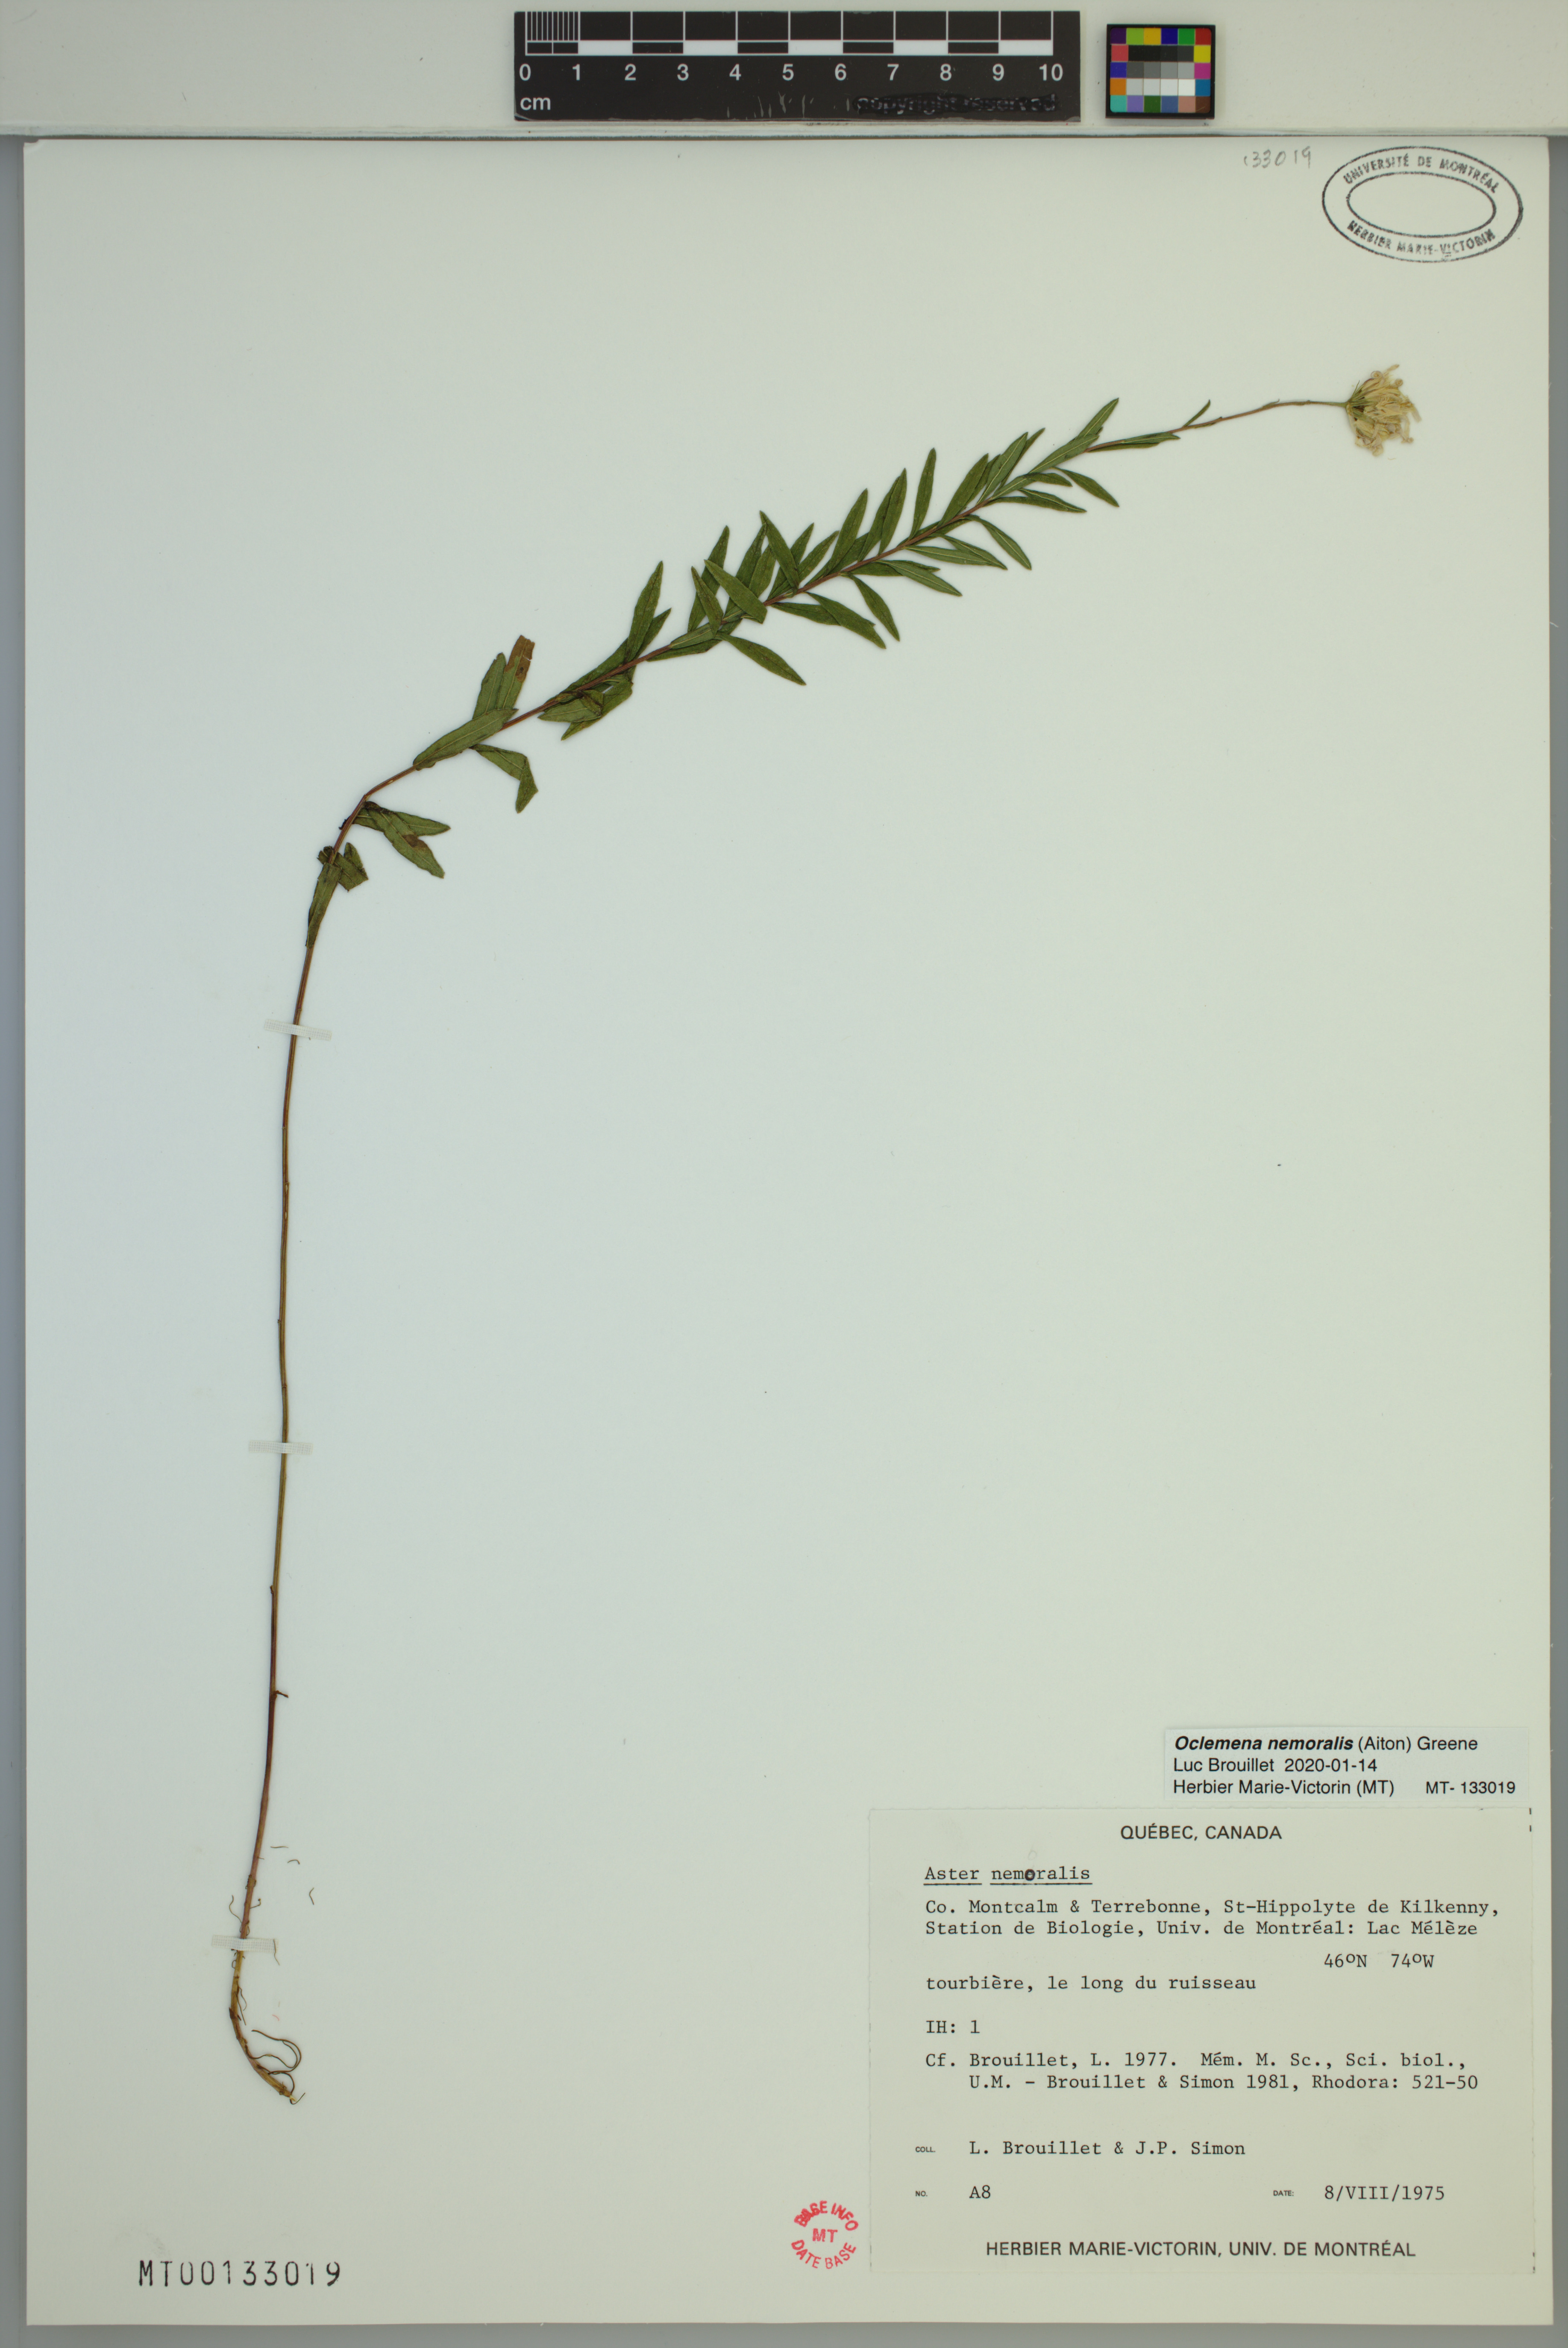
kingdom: Plantae
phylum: Tracheophyta
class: Magnoliopsida
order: Asterales
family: Asteraceae
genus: Oclemena
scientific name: Oclemena nemoralis
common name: Bog aster
